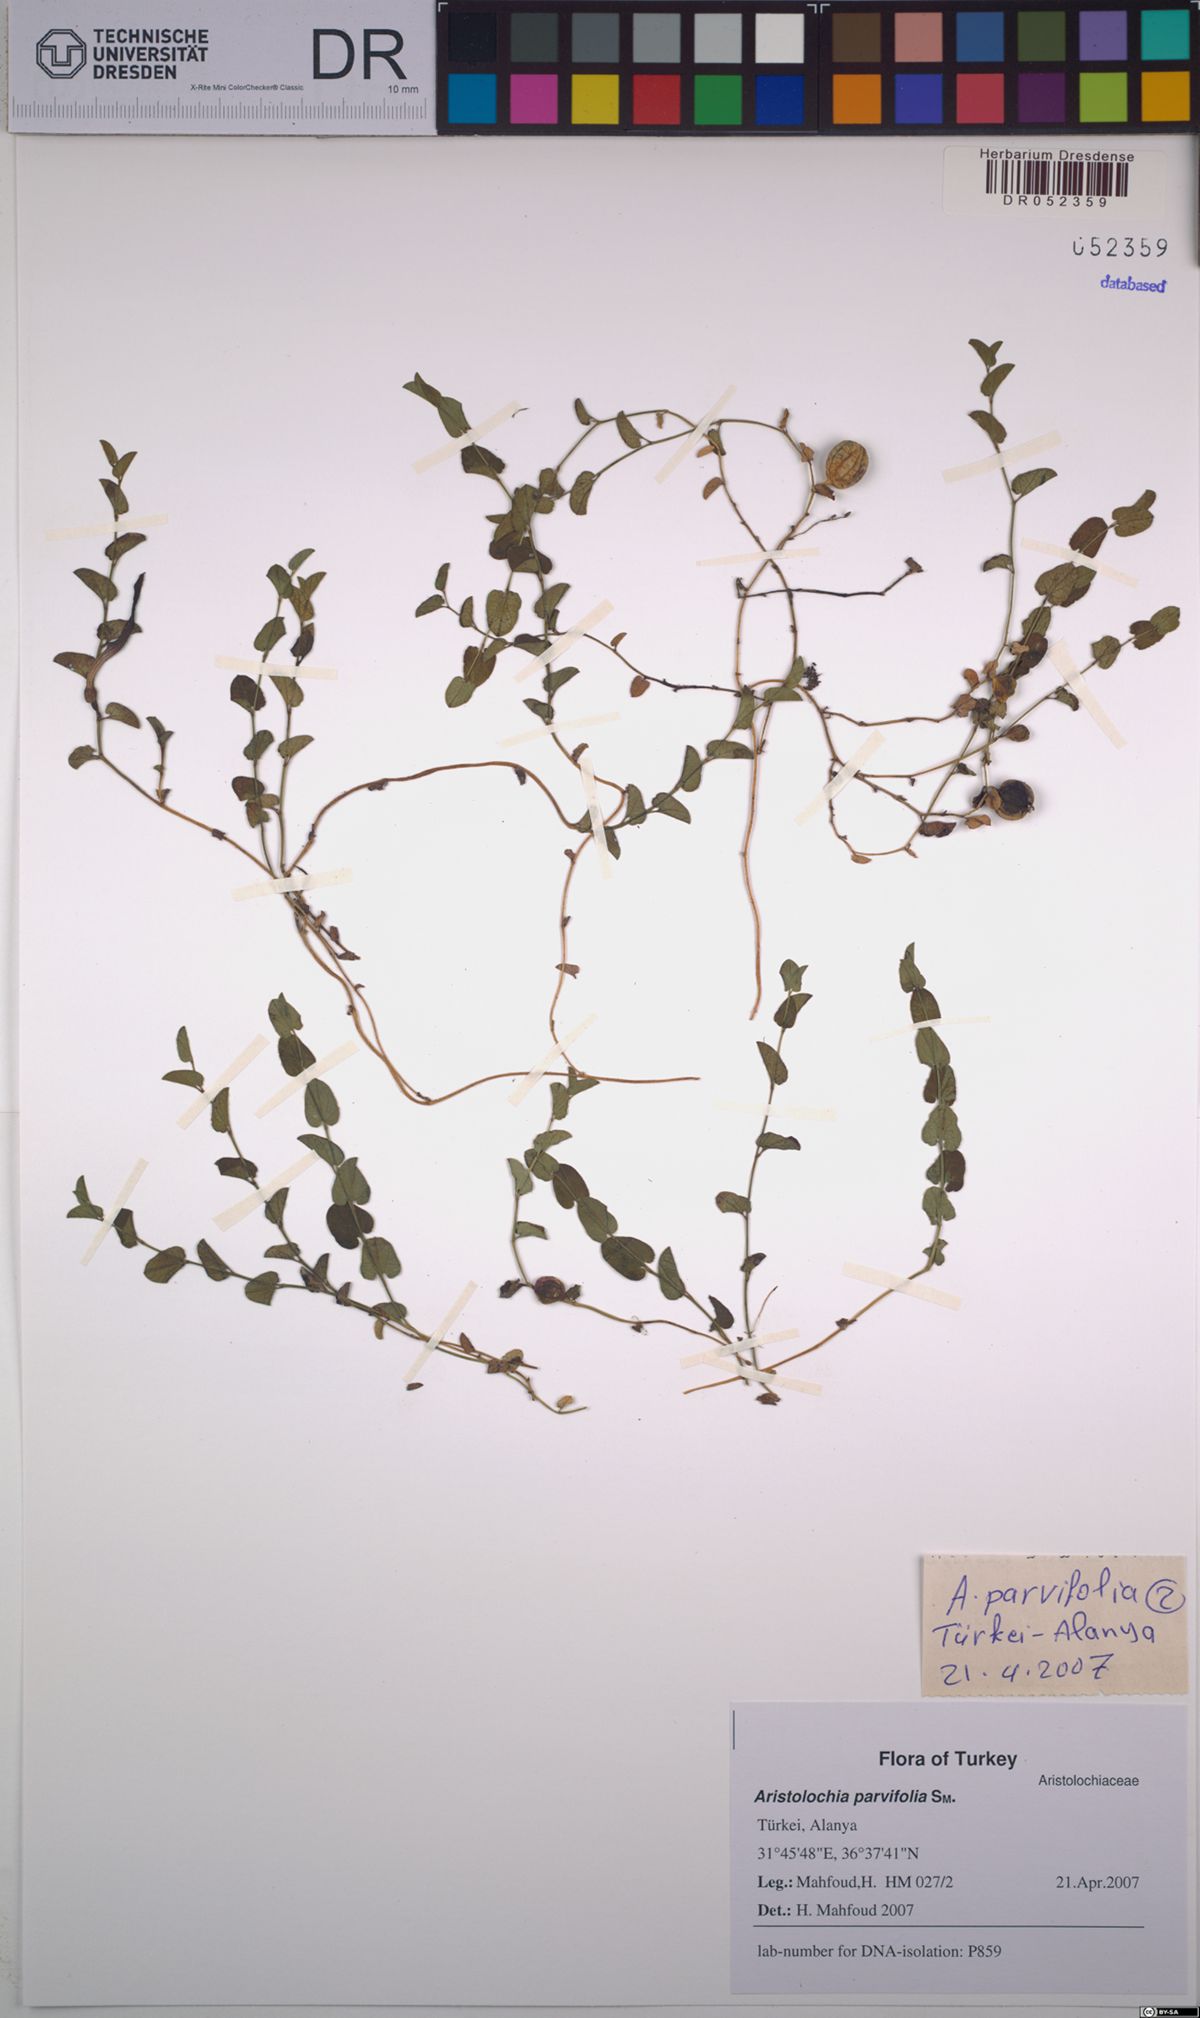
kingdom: Plantae
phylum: Tracheophyta
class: Magnoliopsida
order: Piperales
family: Aristolochiaceae
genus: Aristolochia
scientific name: Aristolochia parvifolia
